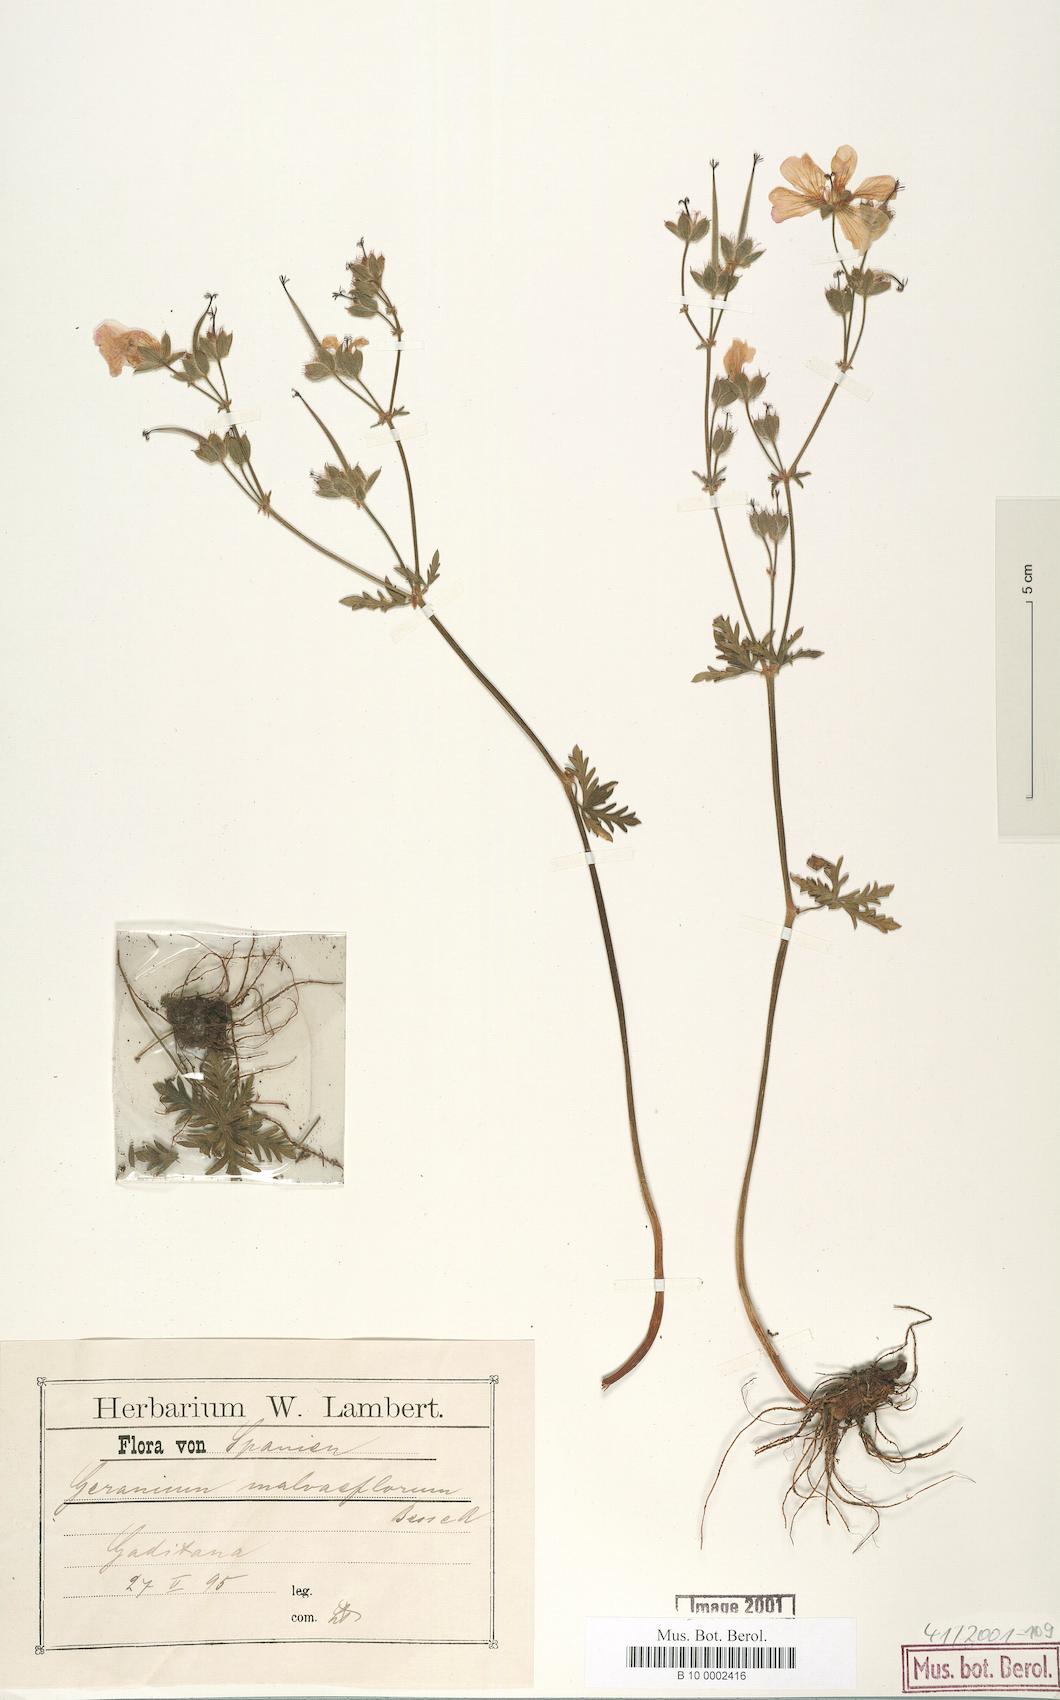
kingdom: Plantae
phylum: Tracheophyta
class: Magnoliopsida
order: Geraniales
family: Geraniaceae
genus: Geranium
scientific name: Geranium malviflorum
